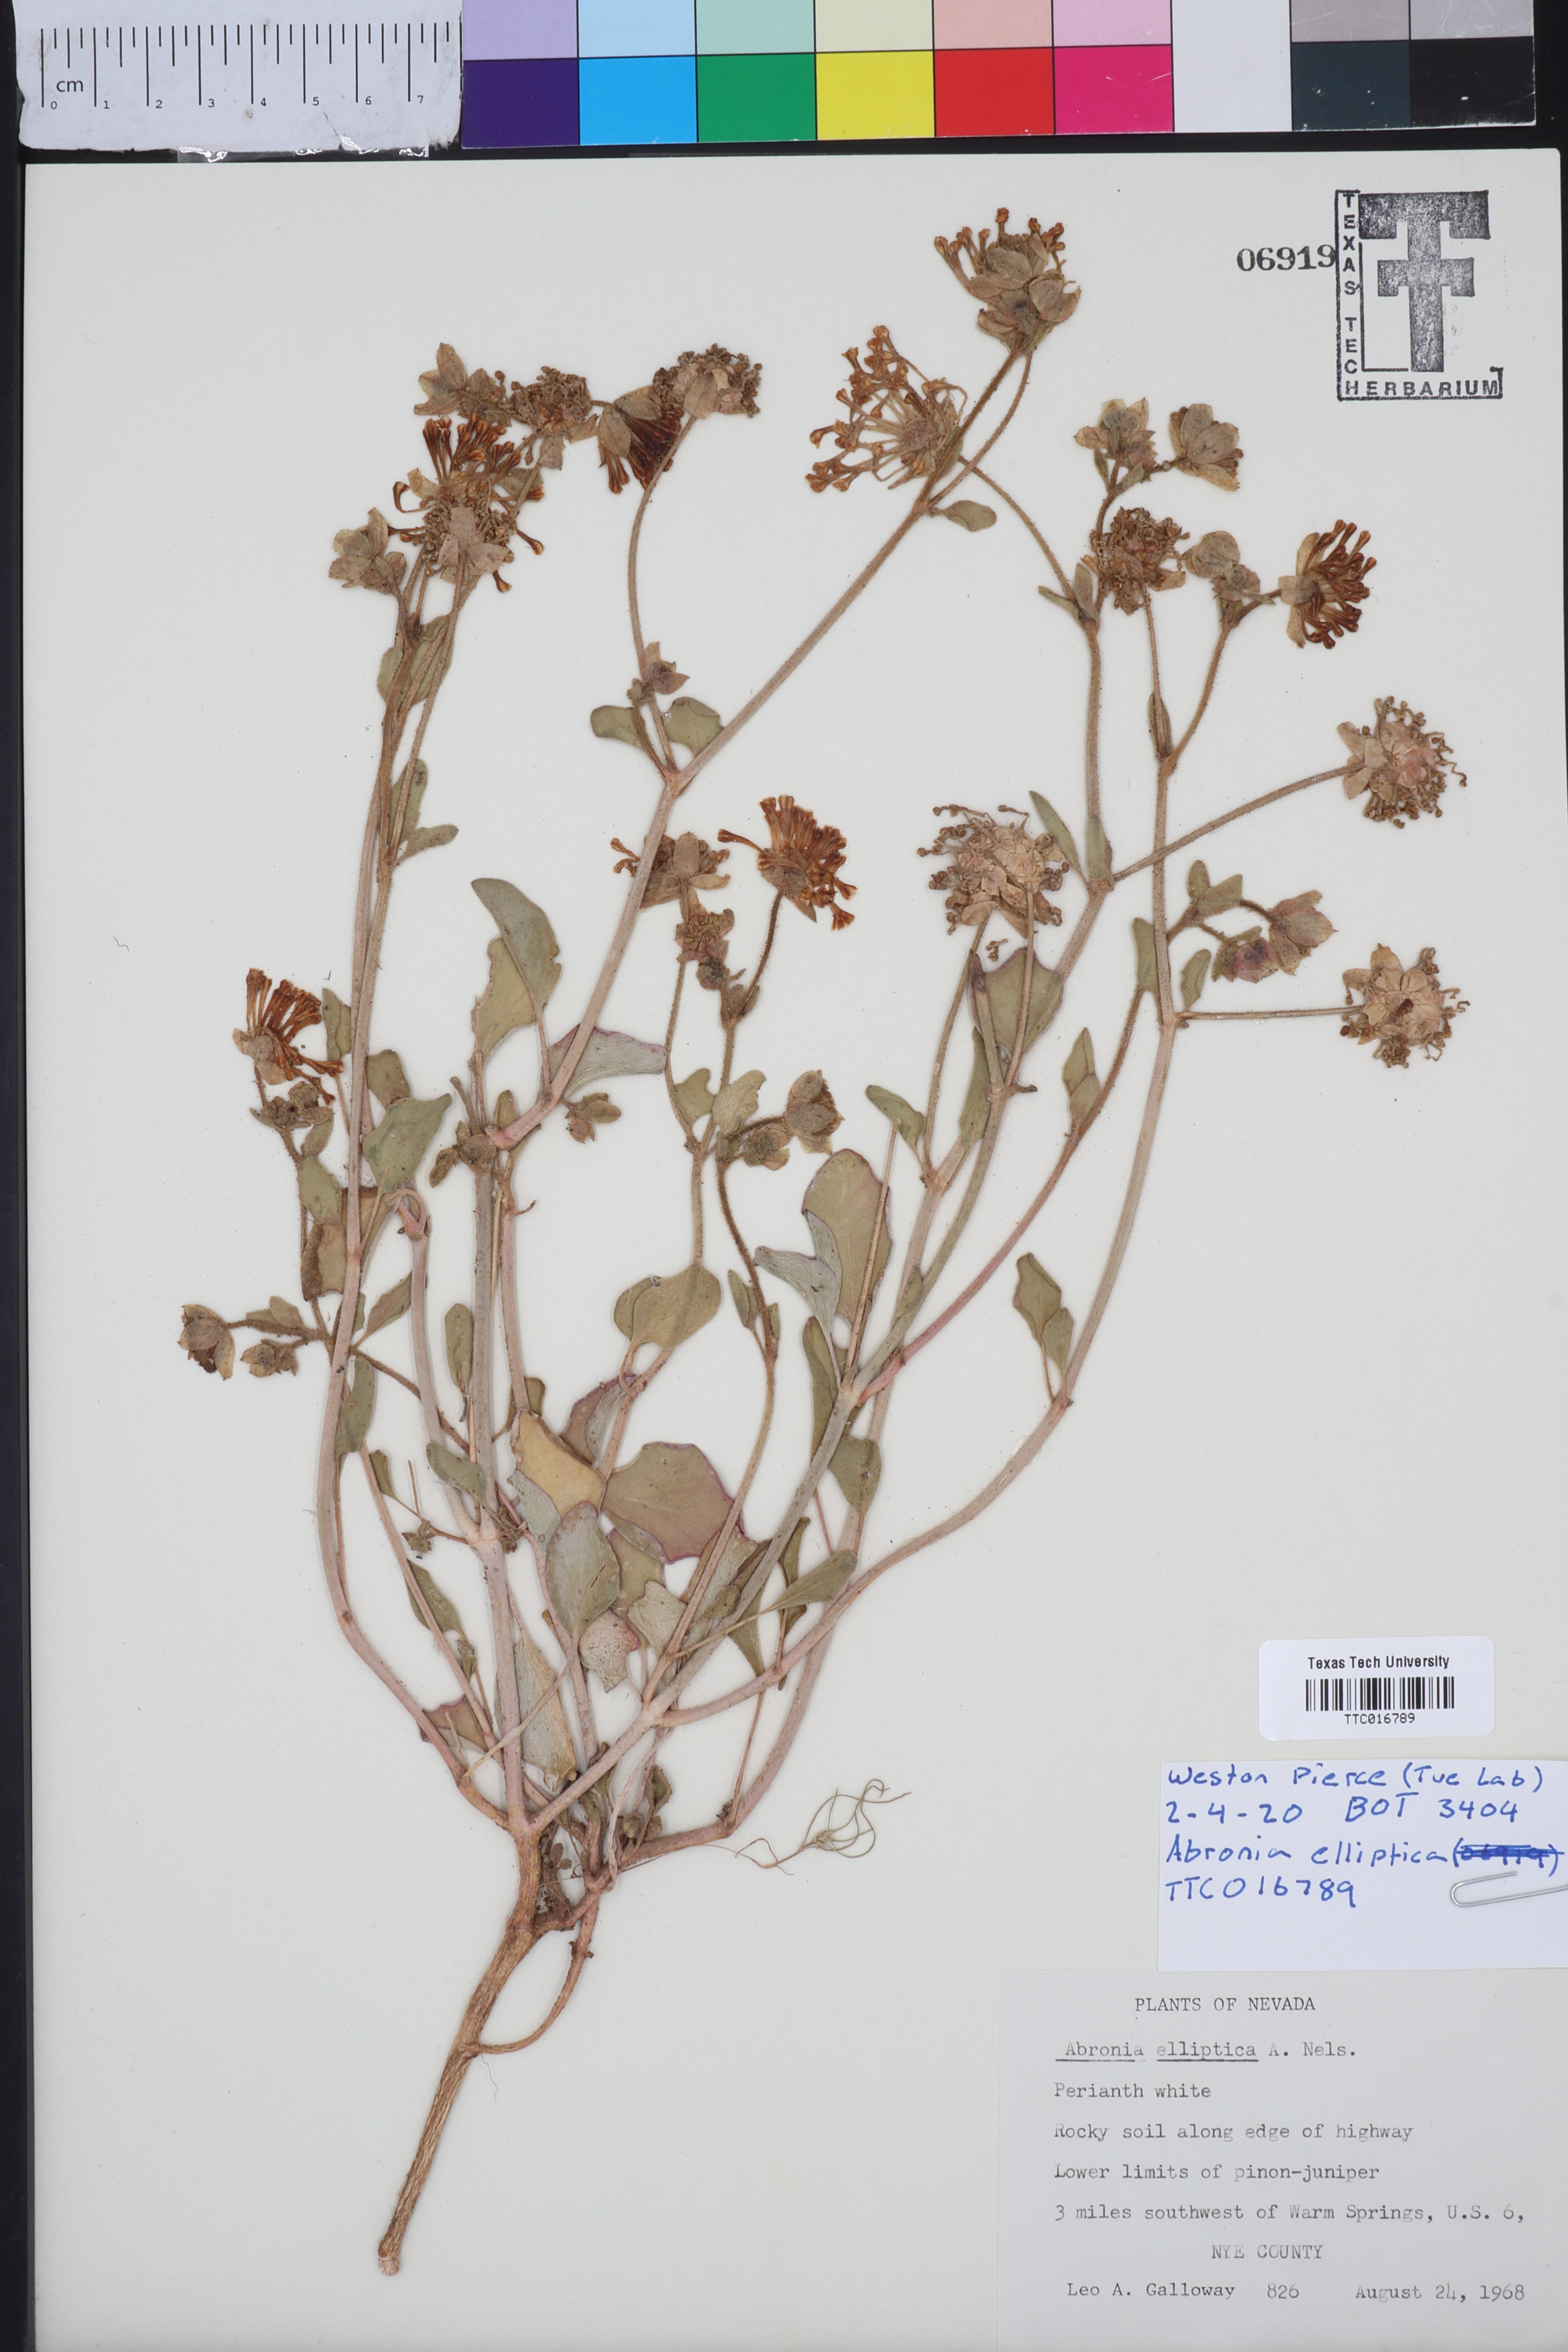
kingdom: Plantae
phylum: Tracheophyta
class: Magnoliopsida
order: Caryophyllales
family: Nyctaginaceae
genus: Abronia
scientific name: Abronia elliptica
